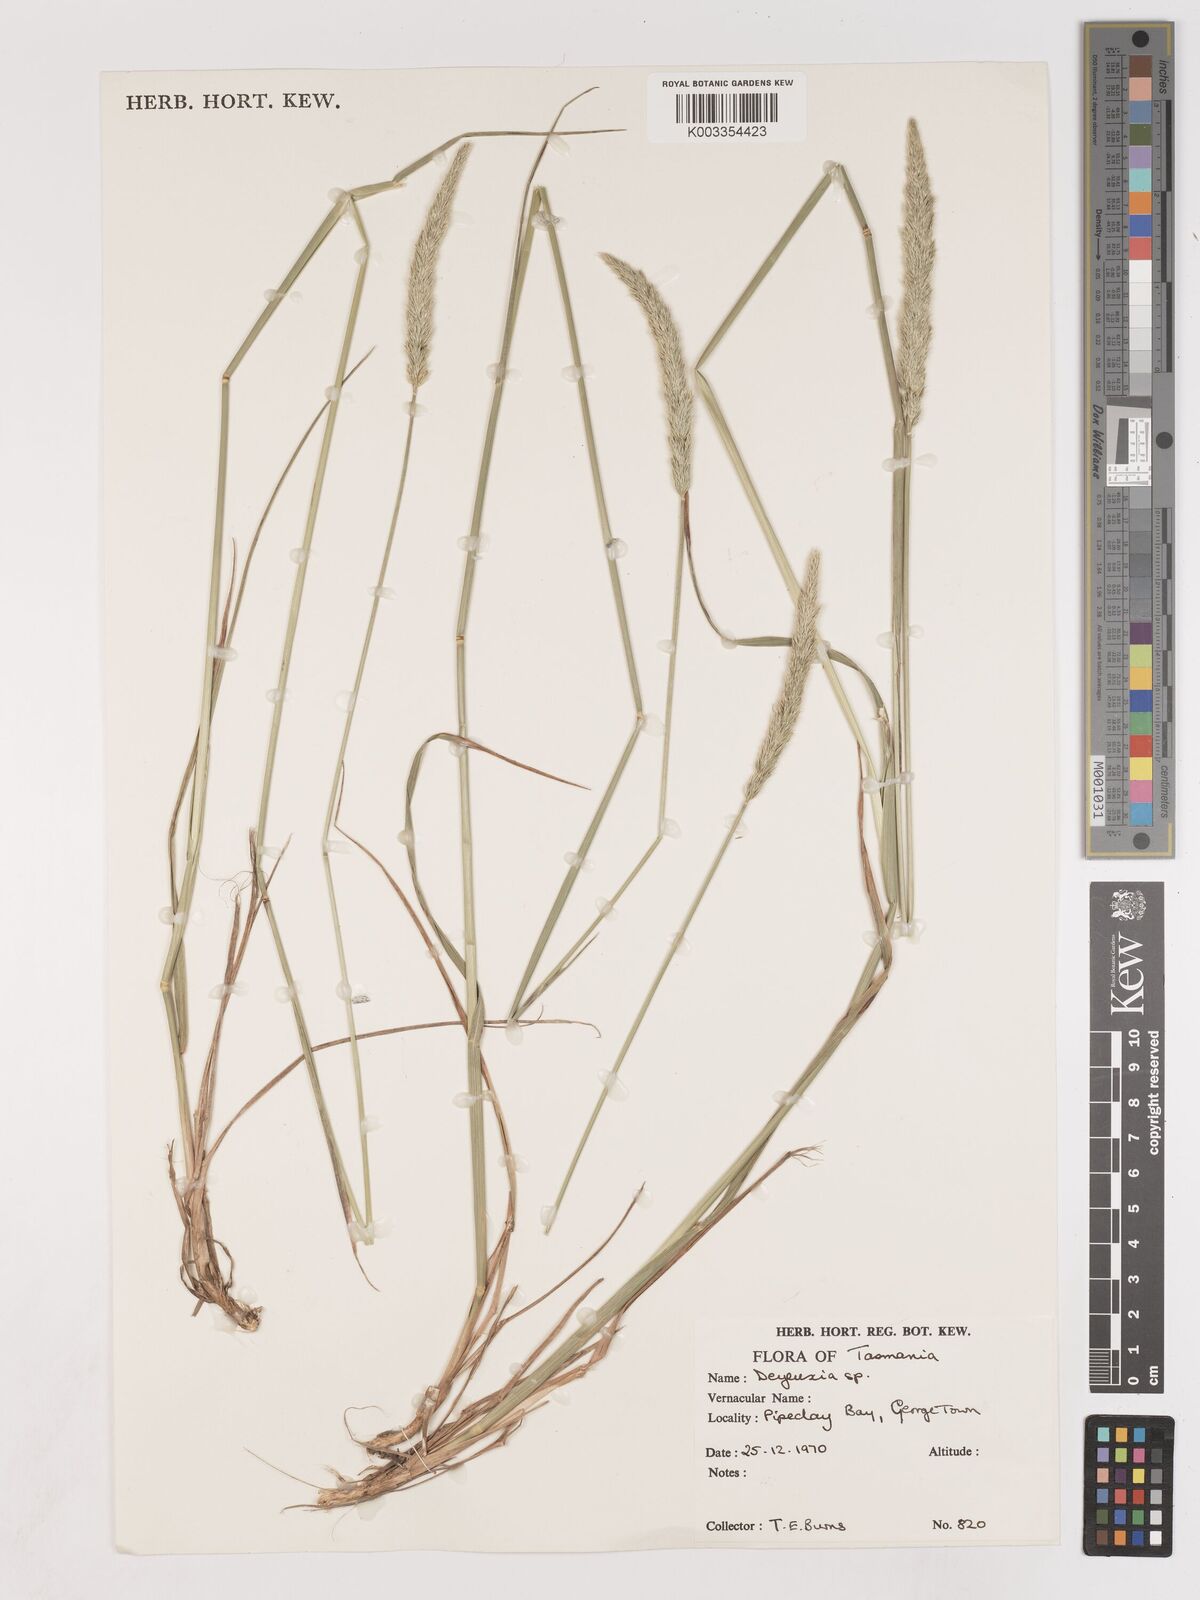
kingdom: Plantae
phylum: Tracheophyta
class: Liliopsida
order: Poales
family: Poaceae
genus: Calamagrostis
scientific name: Calamagrostis
